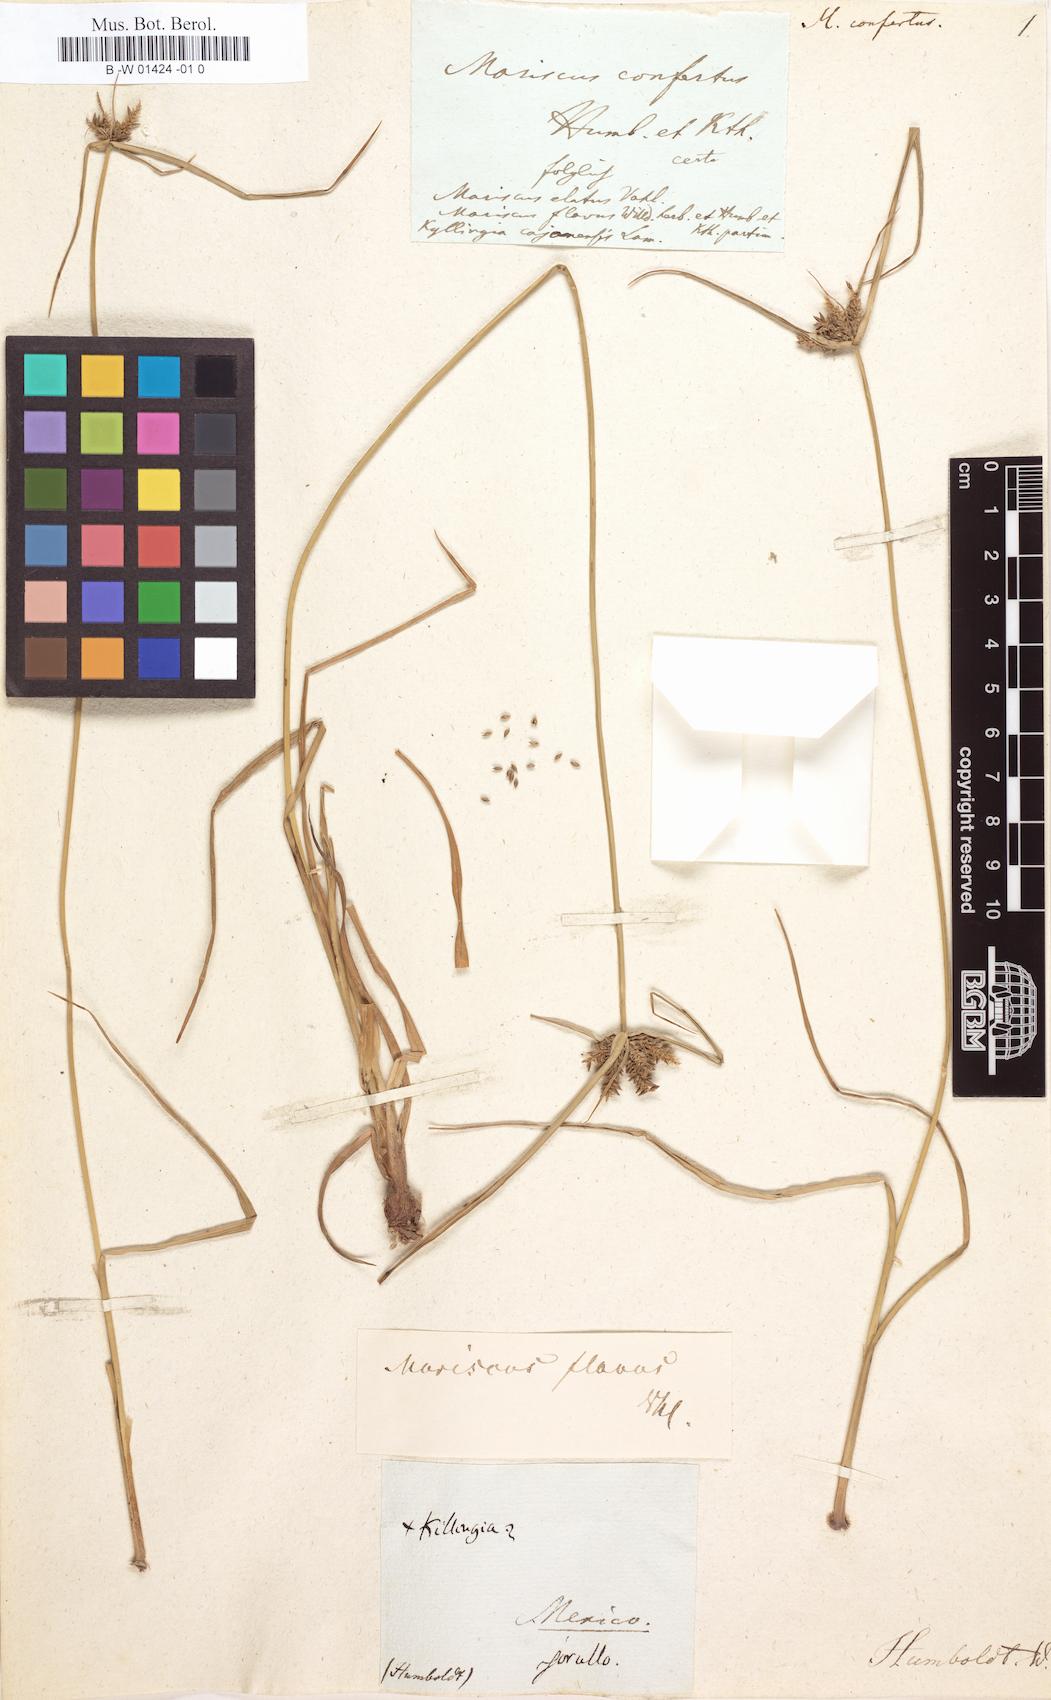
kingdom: Plantae
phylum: Tracheophyta
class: Liliopsida
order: Poales
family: Cyperaceae
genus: Cyperus
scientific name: Cyperus aggregatus
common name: Inflatedscale flatsedge
